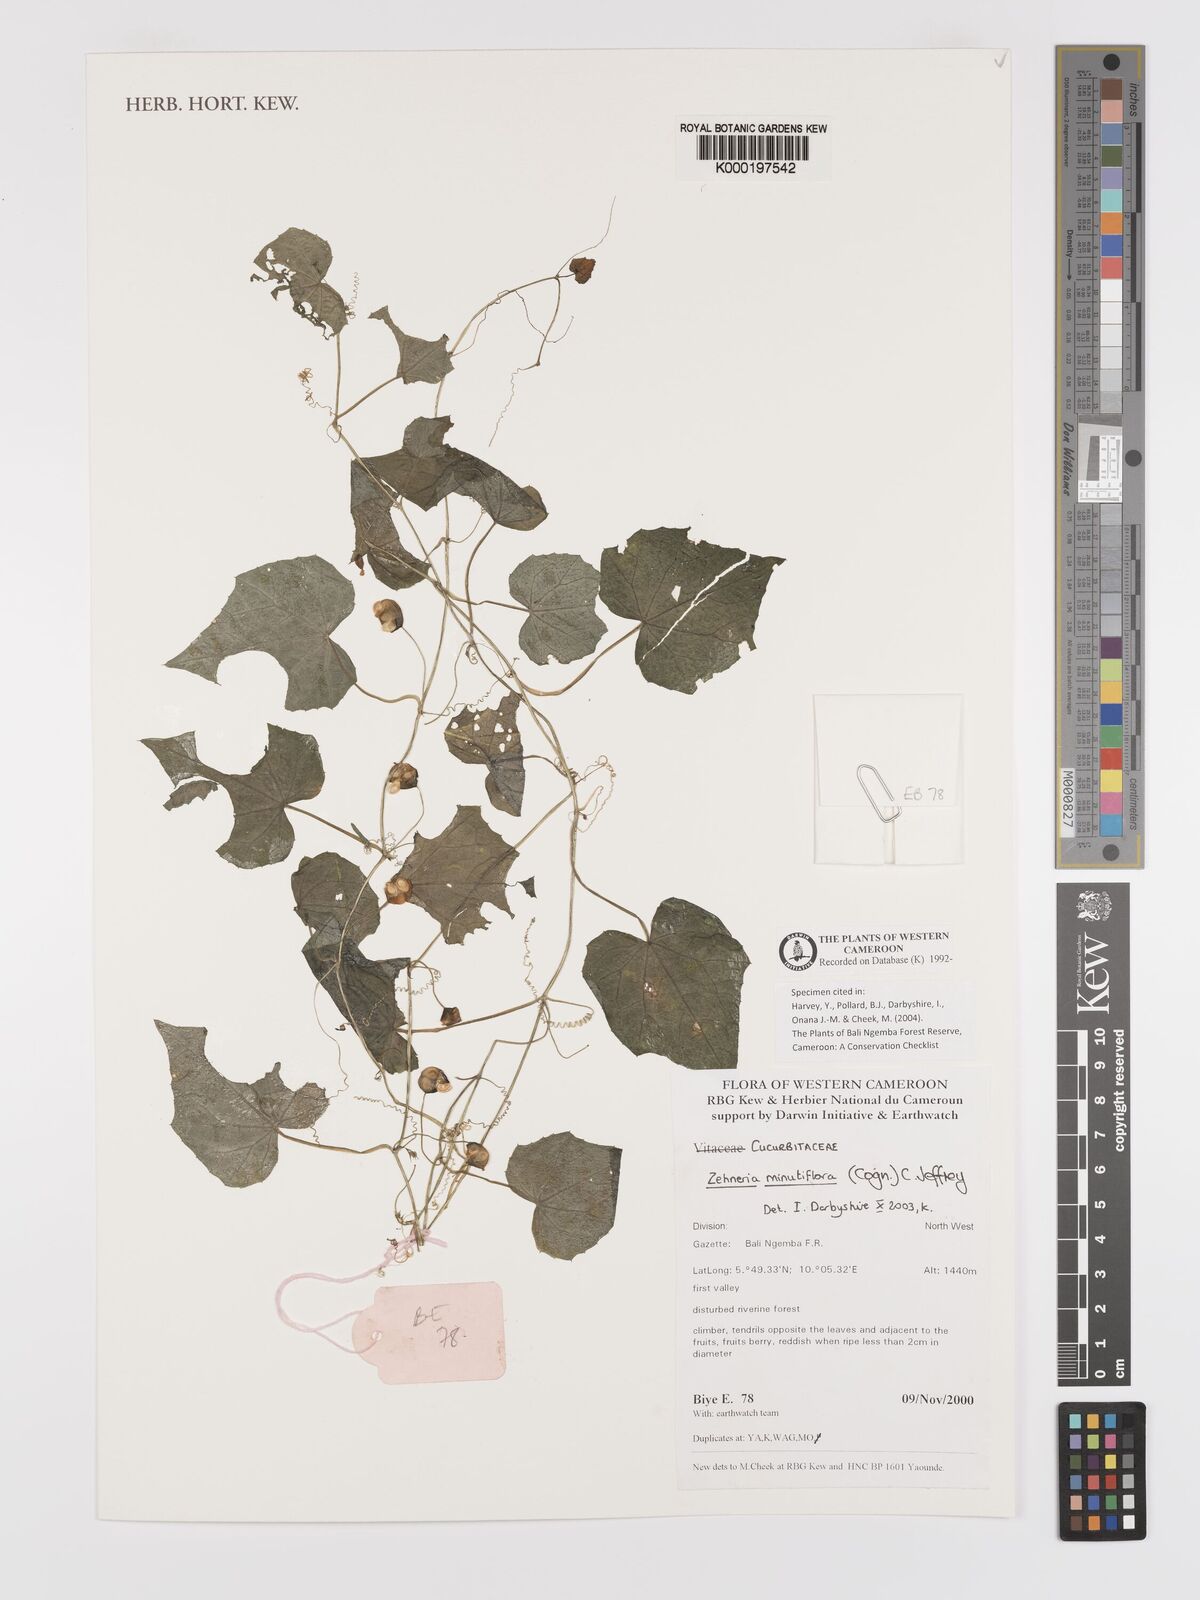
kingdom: Plantae
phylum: Tracheophyta
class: Magnoliopsida
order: Cucurbitales
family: Cucurbitaceae
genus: Zehneria
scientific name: Zehneria minutiflora
